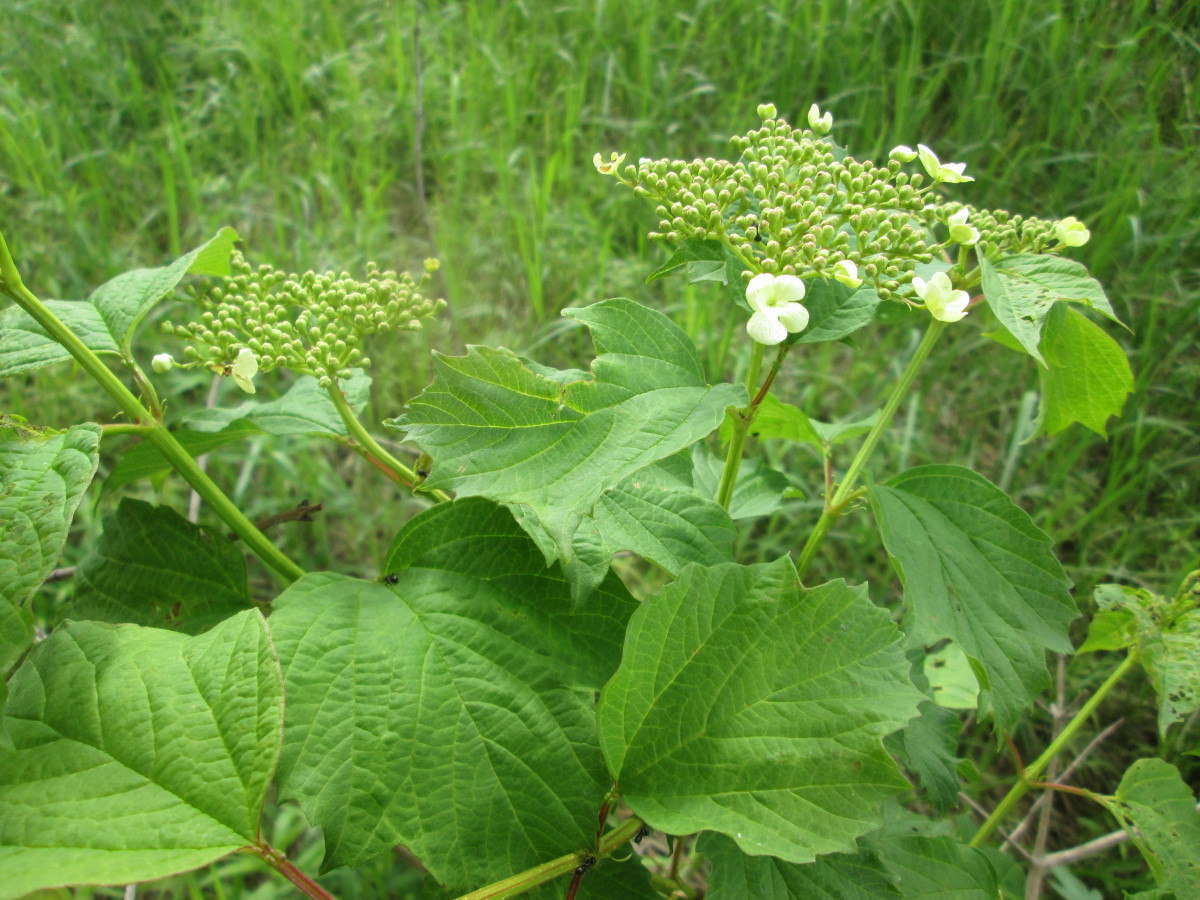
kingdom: Plantae
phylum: Tracheophyta
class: Magnoliopsida
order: Dipsacales
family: Viburnaceae
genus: Viburnum
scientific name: Viburnum opulus
